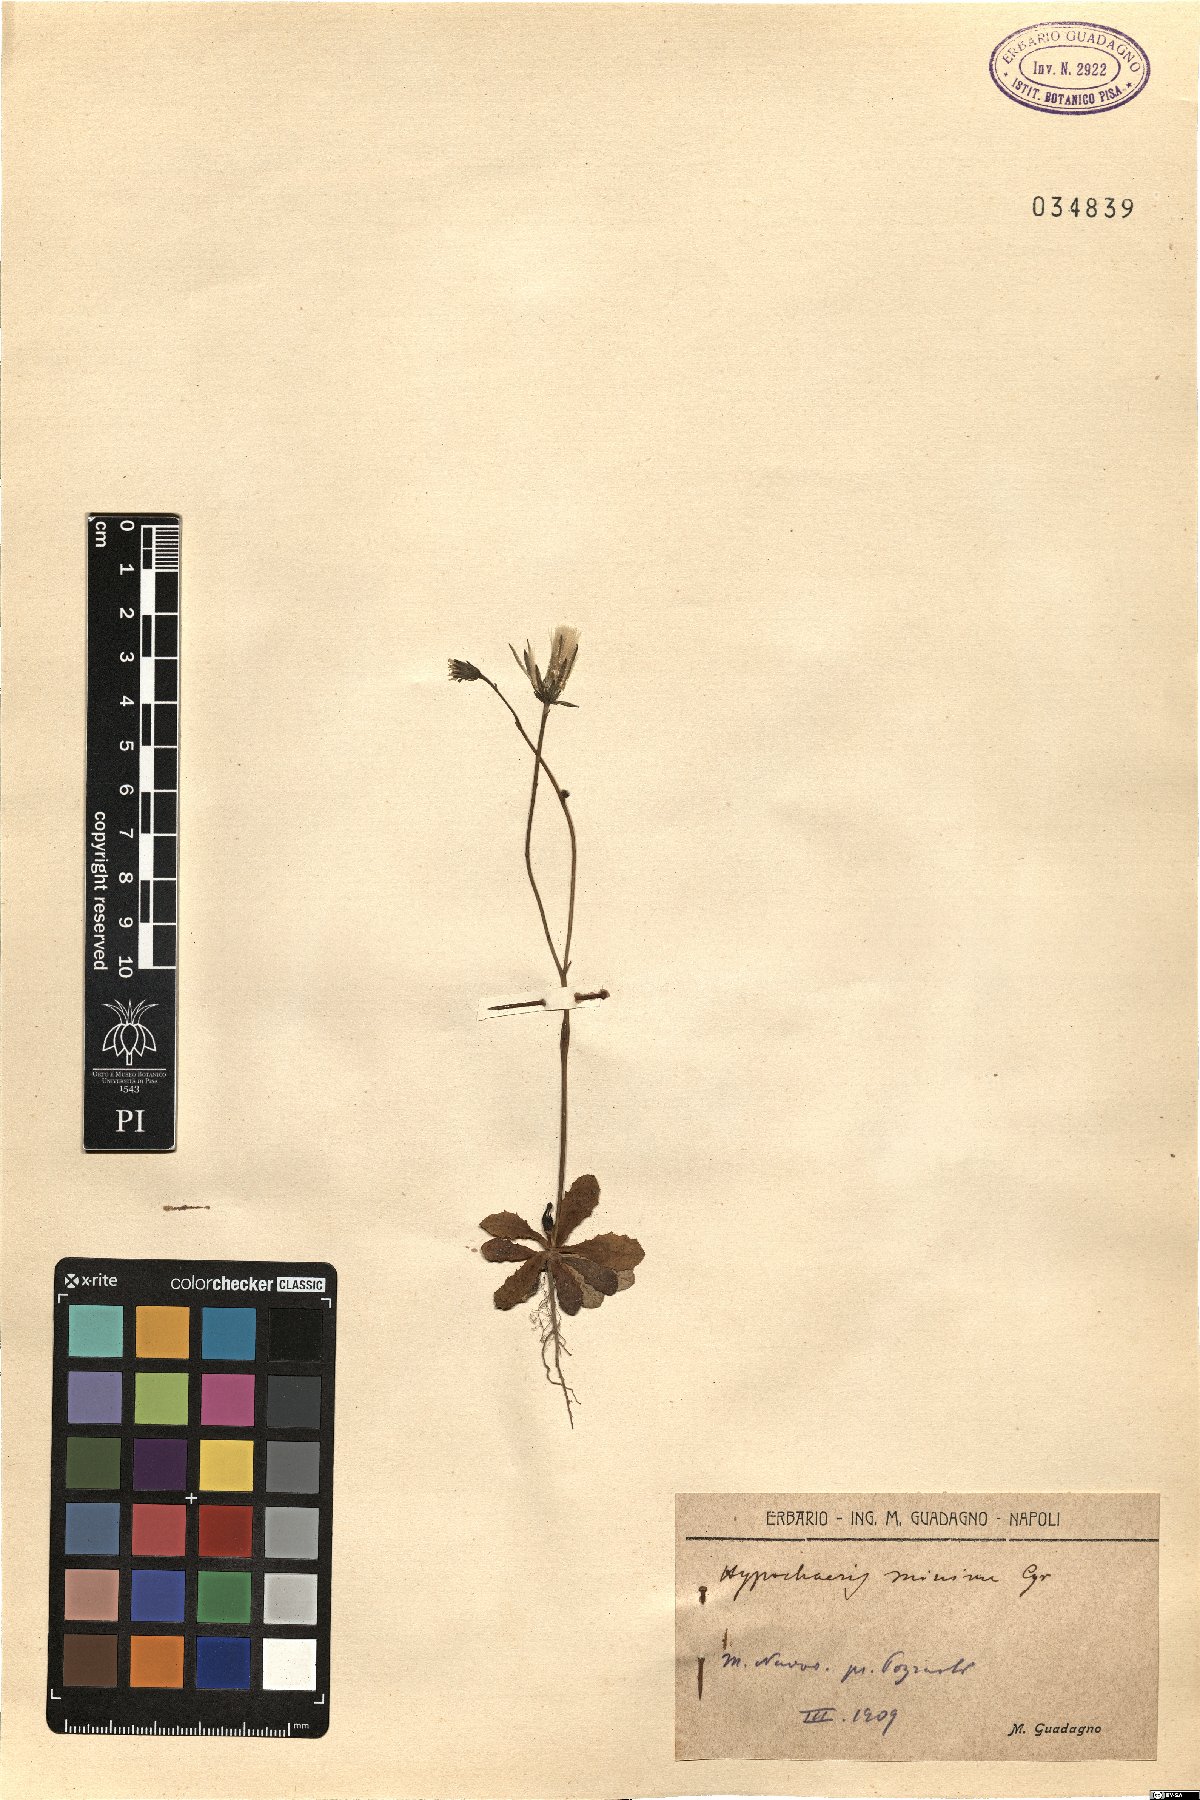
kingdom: Plantae
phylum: Tracheophyta
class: Magnoliopsida
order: Asterales
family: Asteraceae
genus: Hypochaeris
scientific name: Hypochaeris
